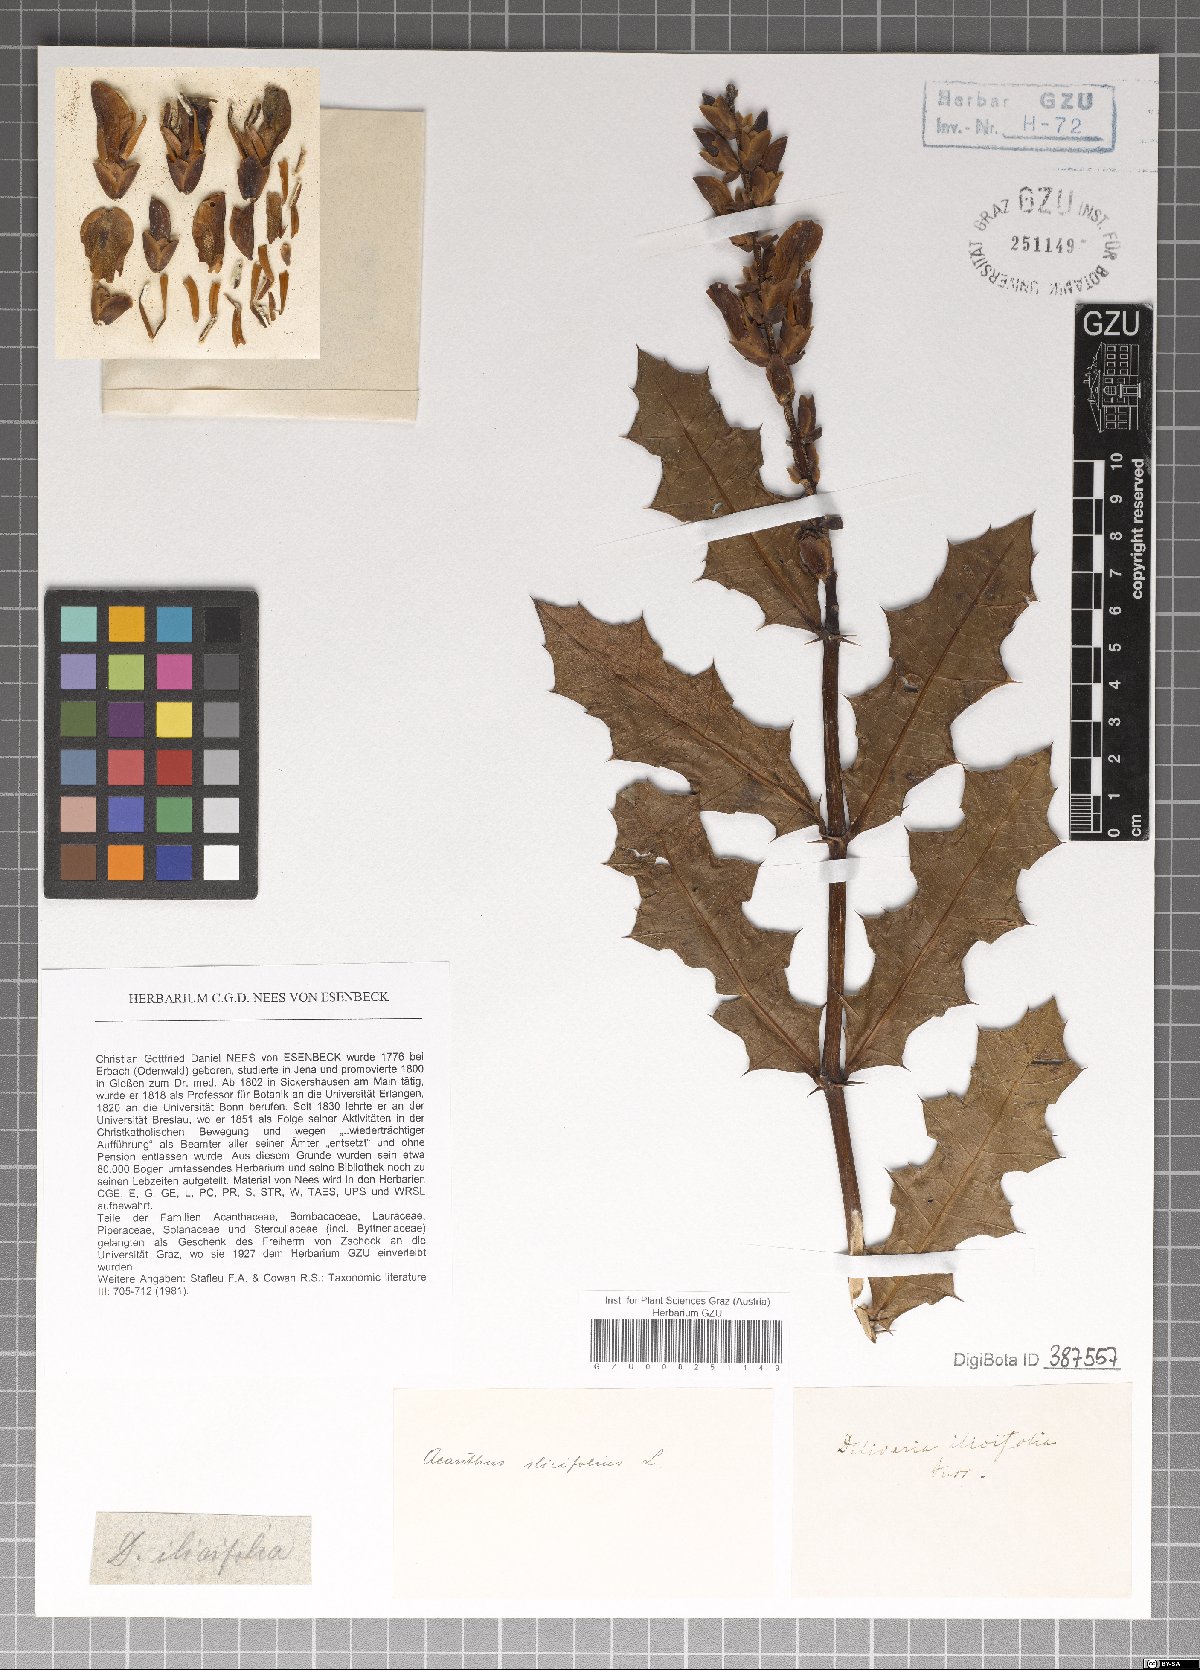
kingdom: Plantae
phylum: Tracheophyta
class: Magnoliopsida
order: Lamiales
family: Acanthaceae
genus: Acanthus
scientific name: Acanthus ilicifolius
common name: Holy mangrove
